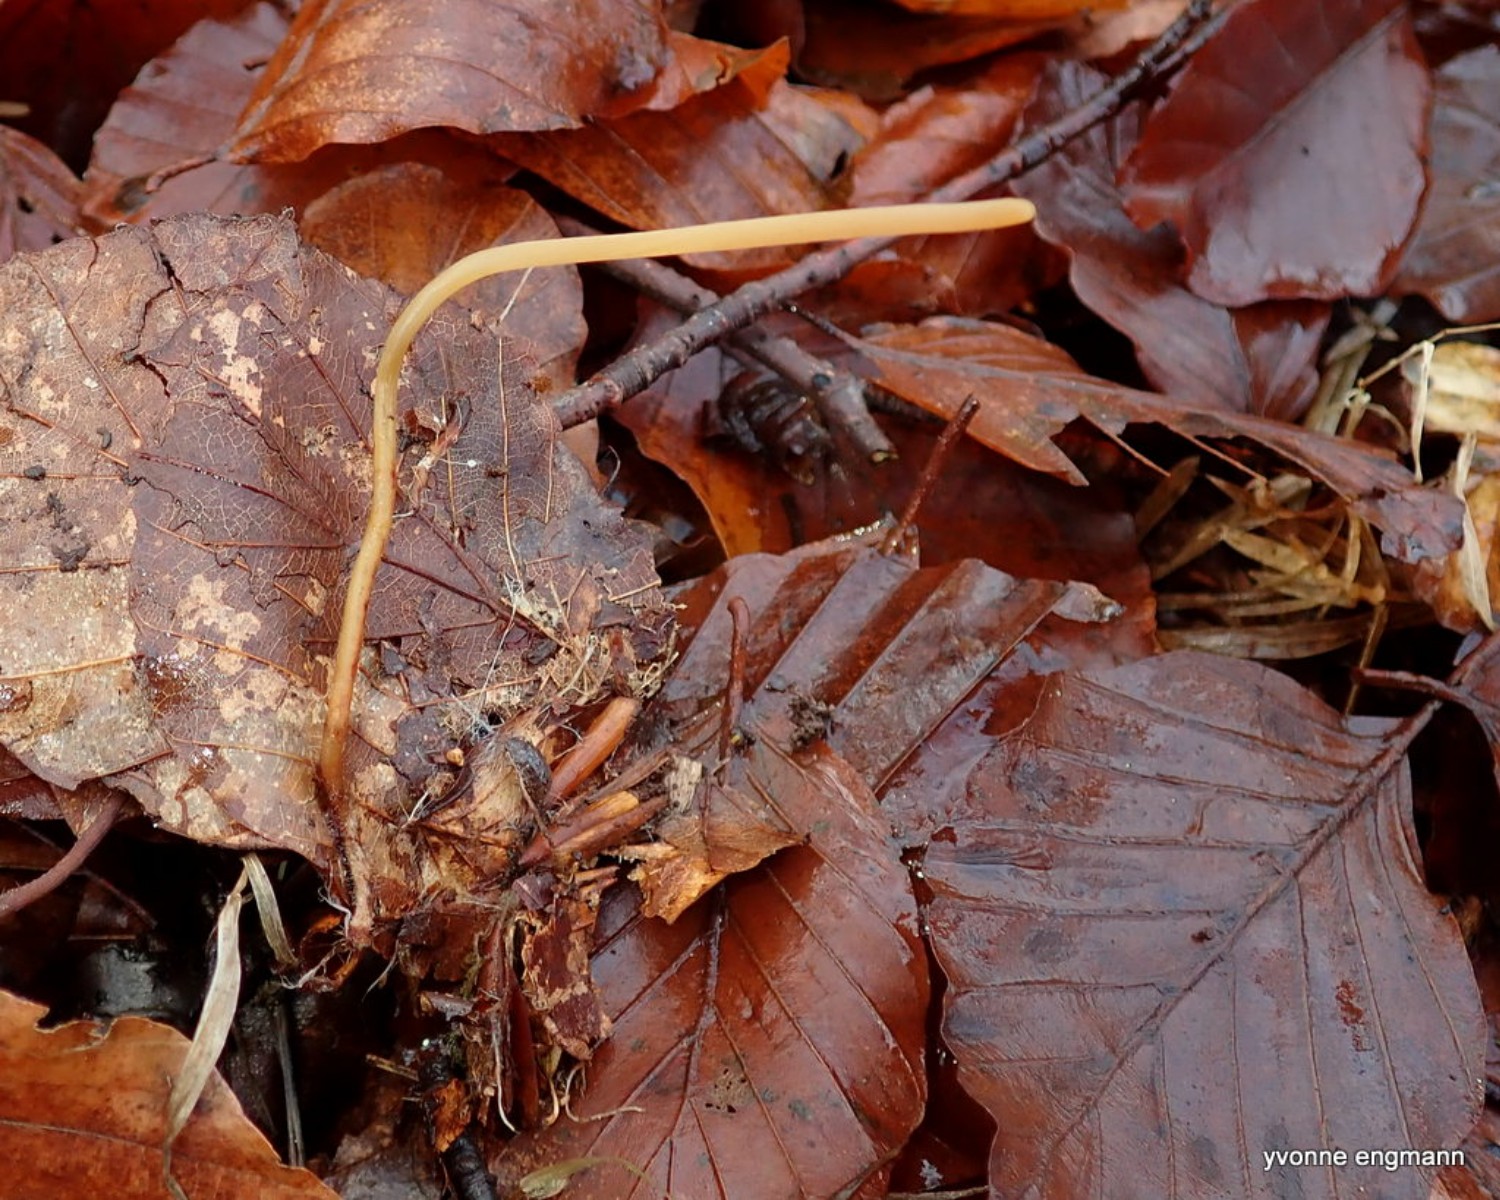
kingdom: Fungi
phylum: Basidiomycota
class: Agaricomycetes
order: Agaricales
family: Typhulaceae
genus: Typhula
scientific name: Typhula fistulosa
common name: pibet rørkølle
